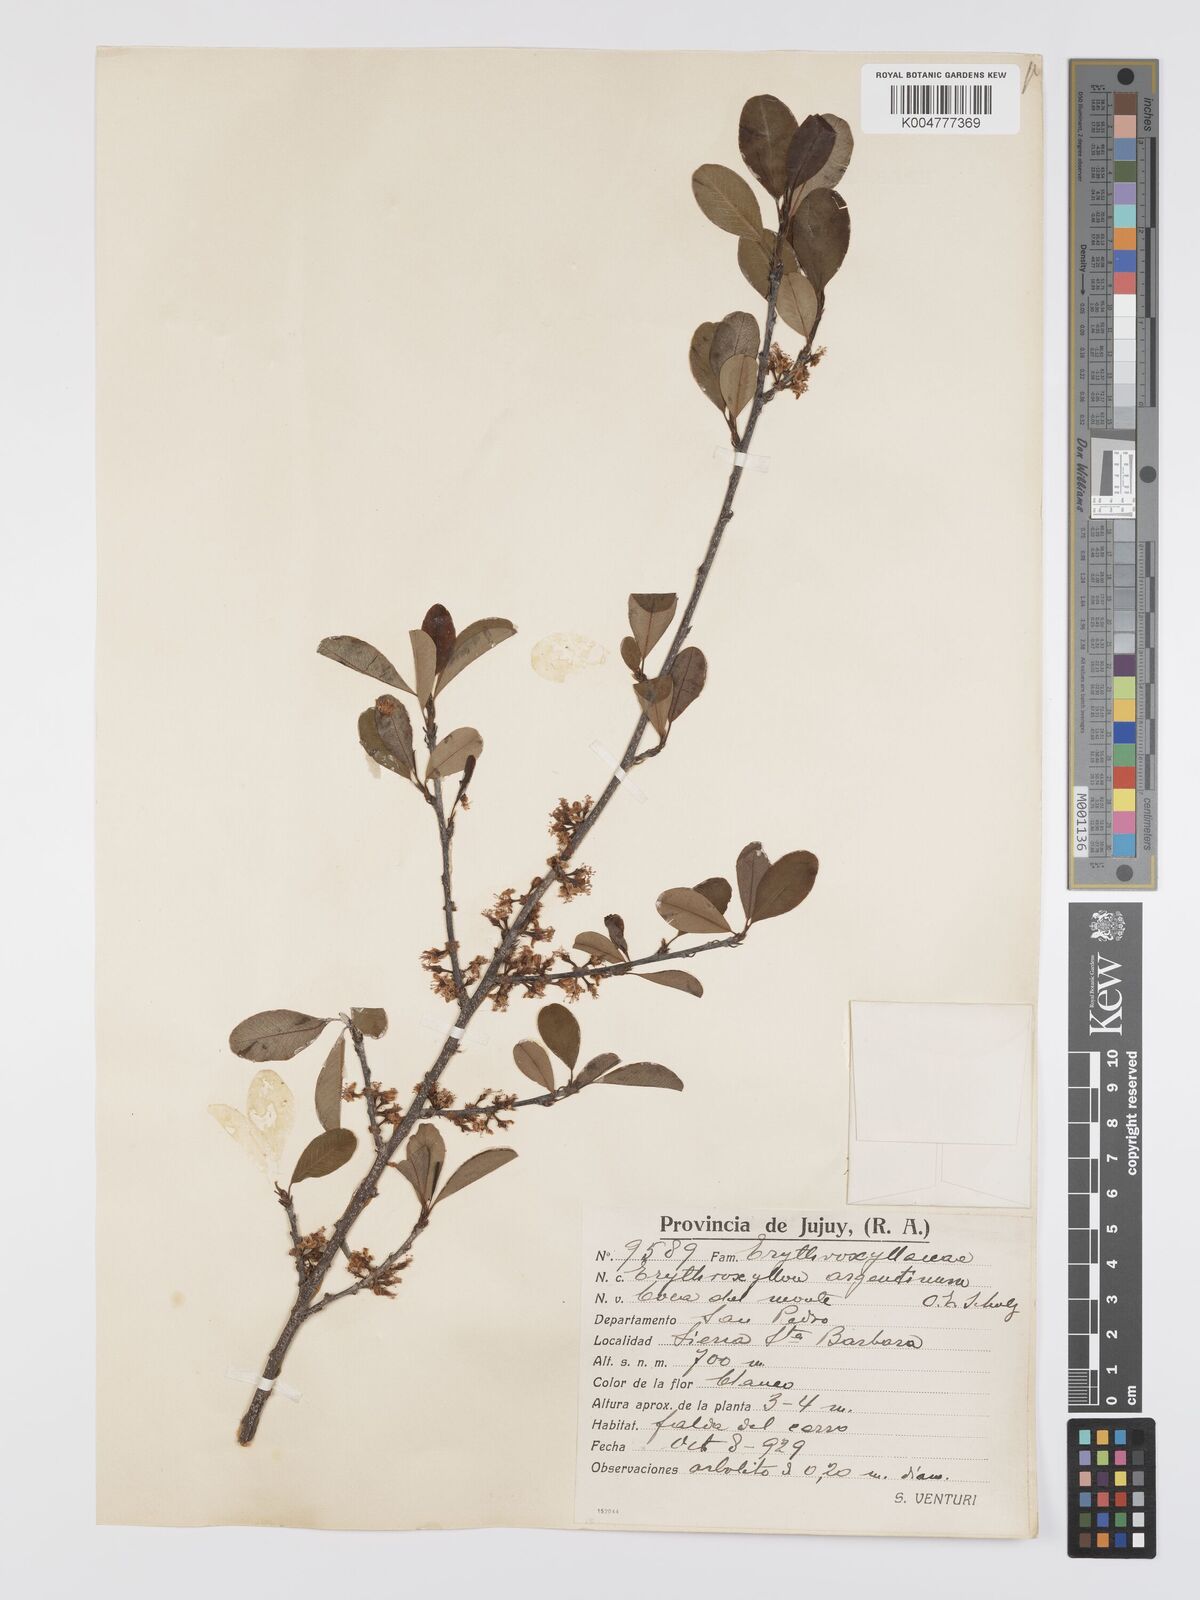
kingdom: Plantae
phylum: Tracheophyta
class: Magnoliopsida
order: Malpighiales
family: Erythroxylaceae
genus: Erythroxylum
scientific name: Erythroxylum argentinum
